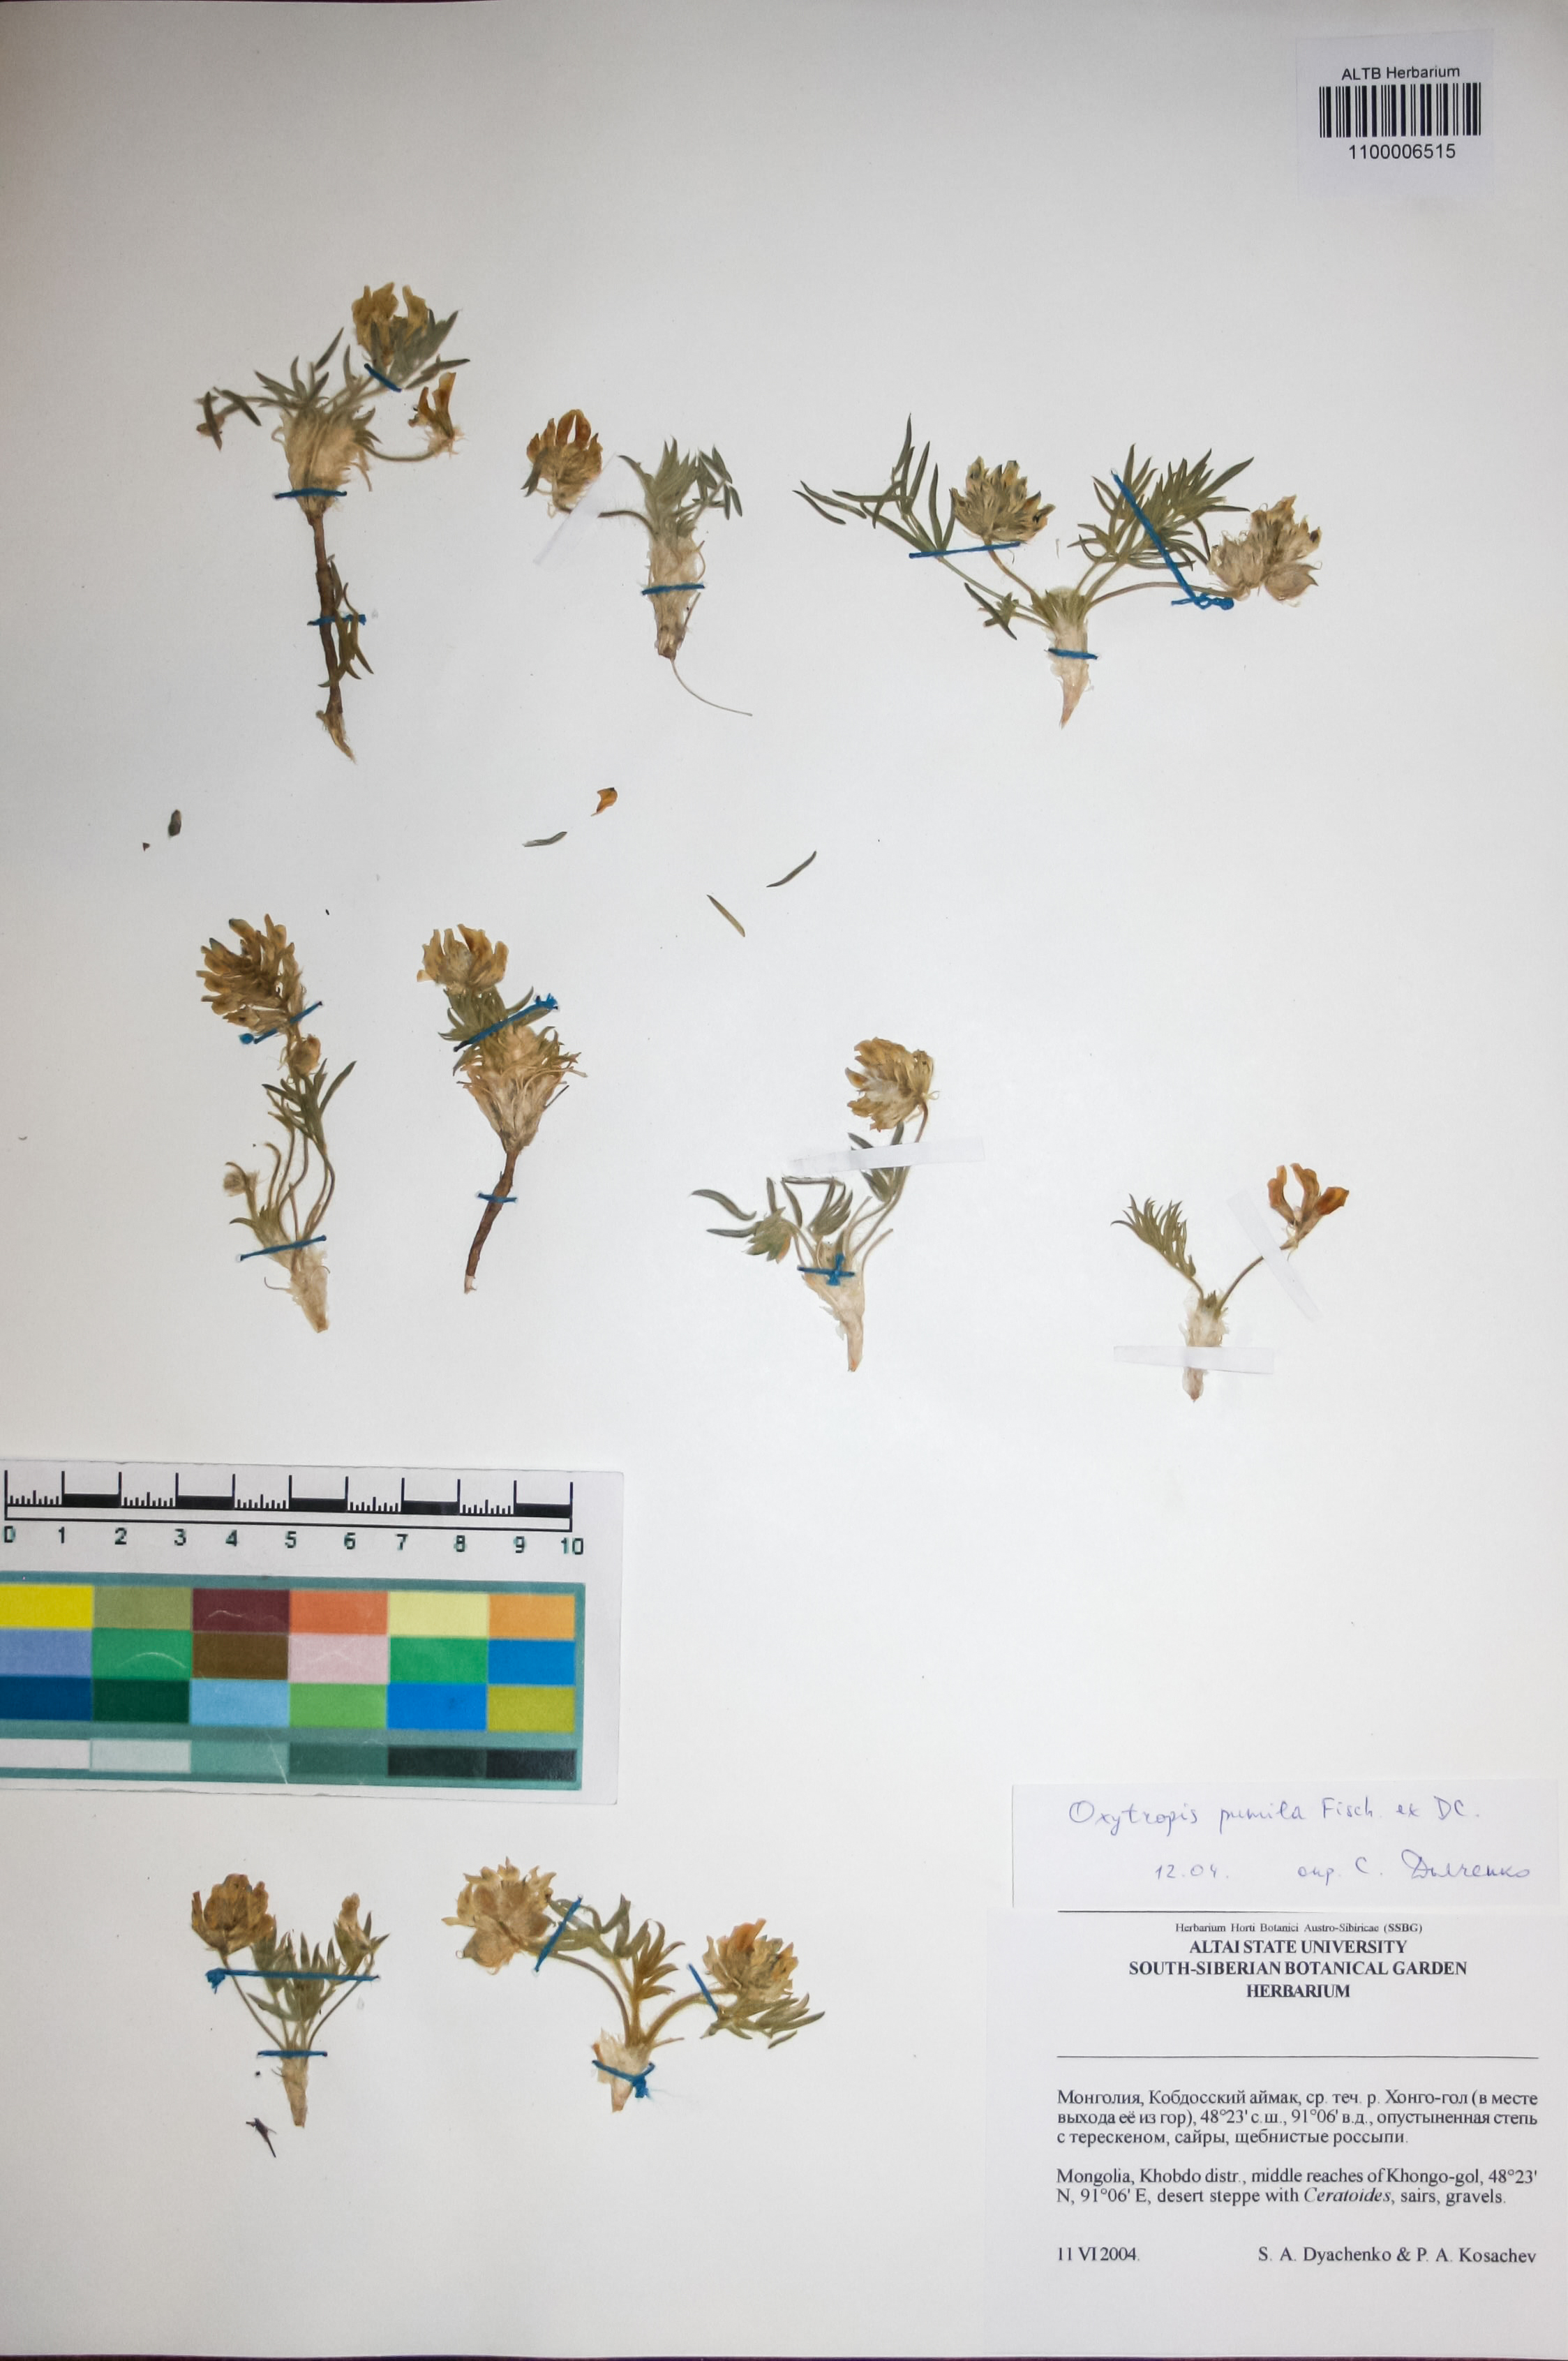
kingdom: Plantae
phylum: Tracheophyta
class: Magnoliopsida
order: Fabales
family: Fabaceae
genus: Oxytropis
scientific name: Oxytropis pumila
